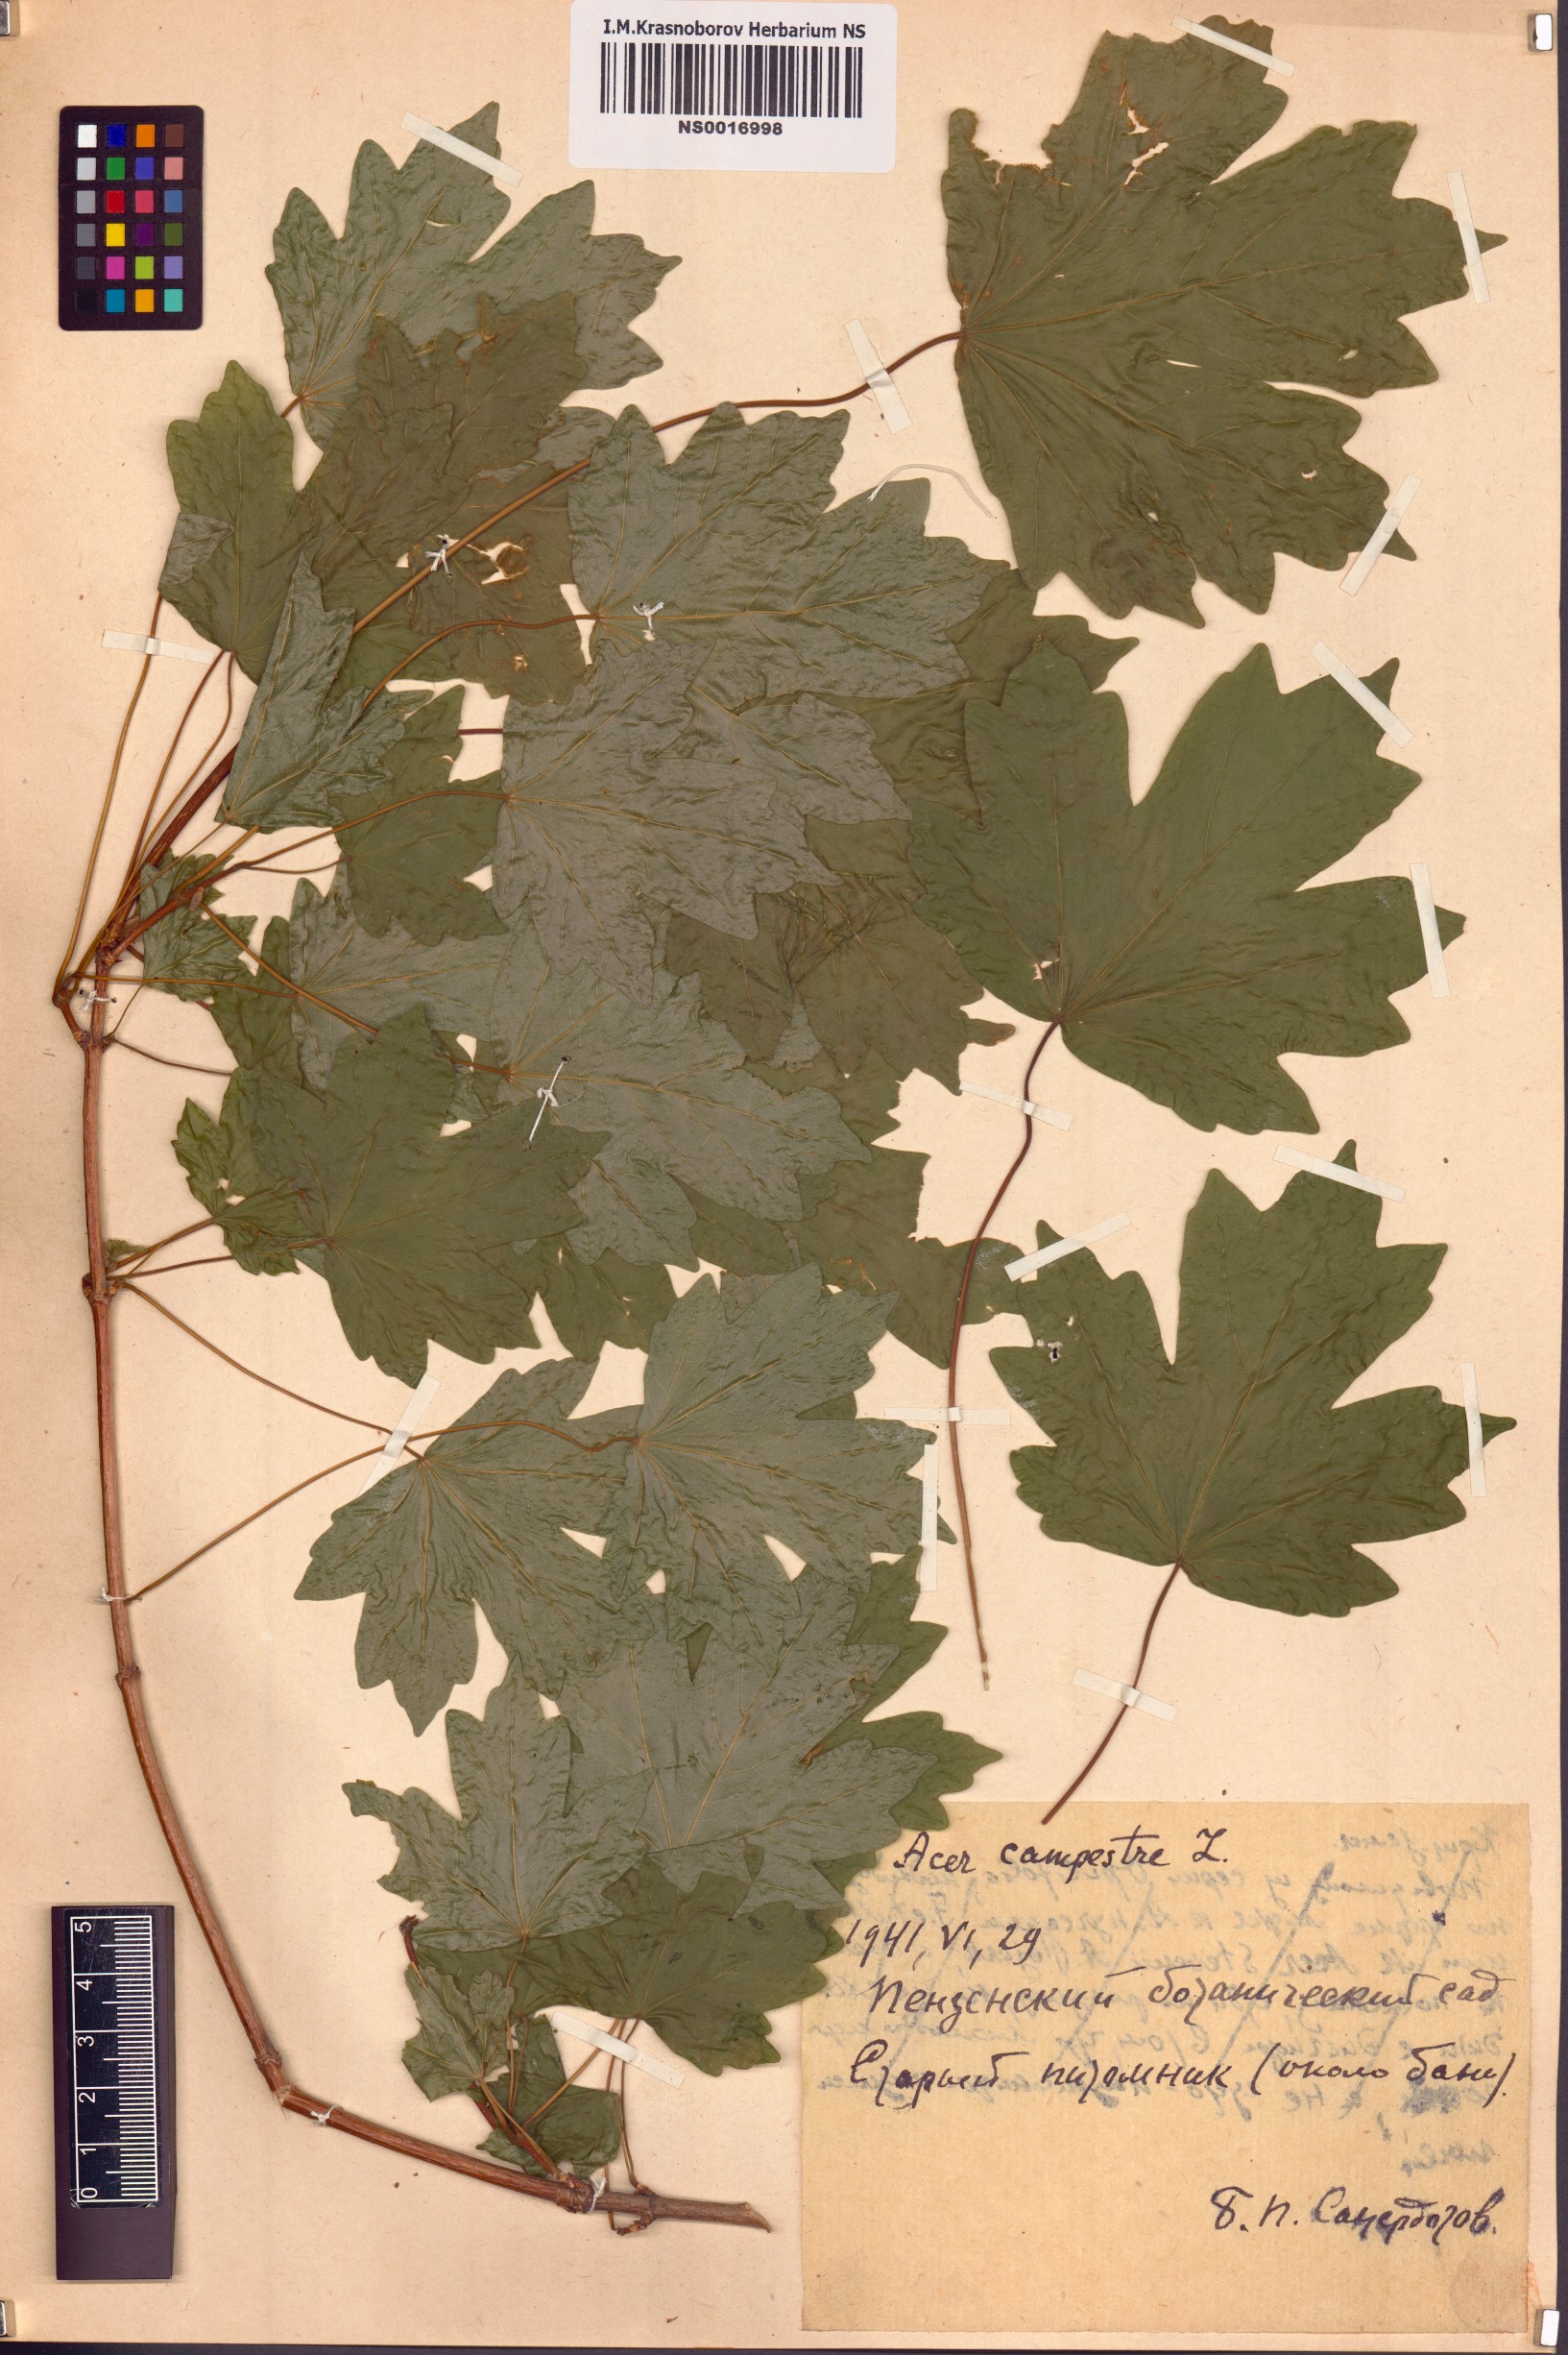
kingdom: Plantae
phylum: Tracheophyta
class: Magnoliopsida
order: Sapindales
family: Sapindaceae
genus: Acer
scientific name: Acer campestre
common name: Field maple
